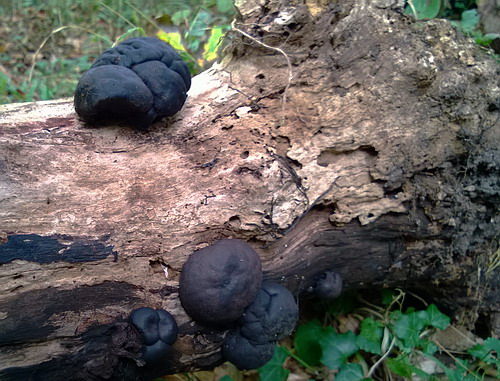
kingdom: Fungi
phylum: Ascomycota
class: Sordariomycetes
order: Xylariales
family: Hypoxylaceae
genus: Daldinia
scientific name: Daldinia concentrica
